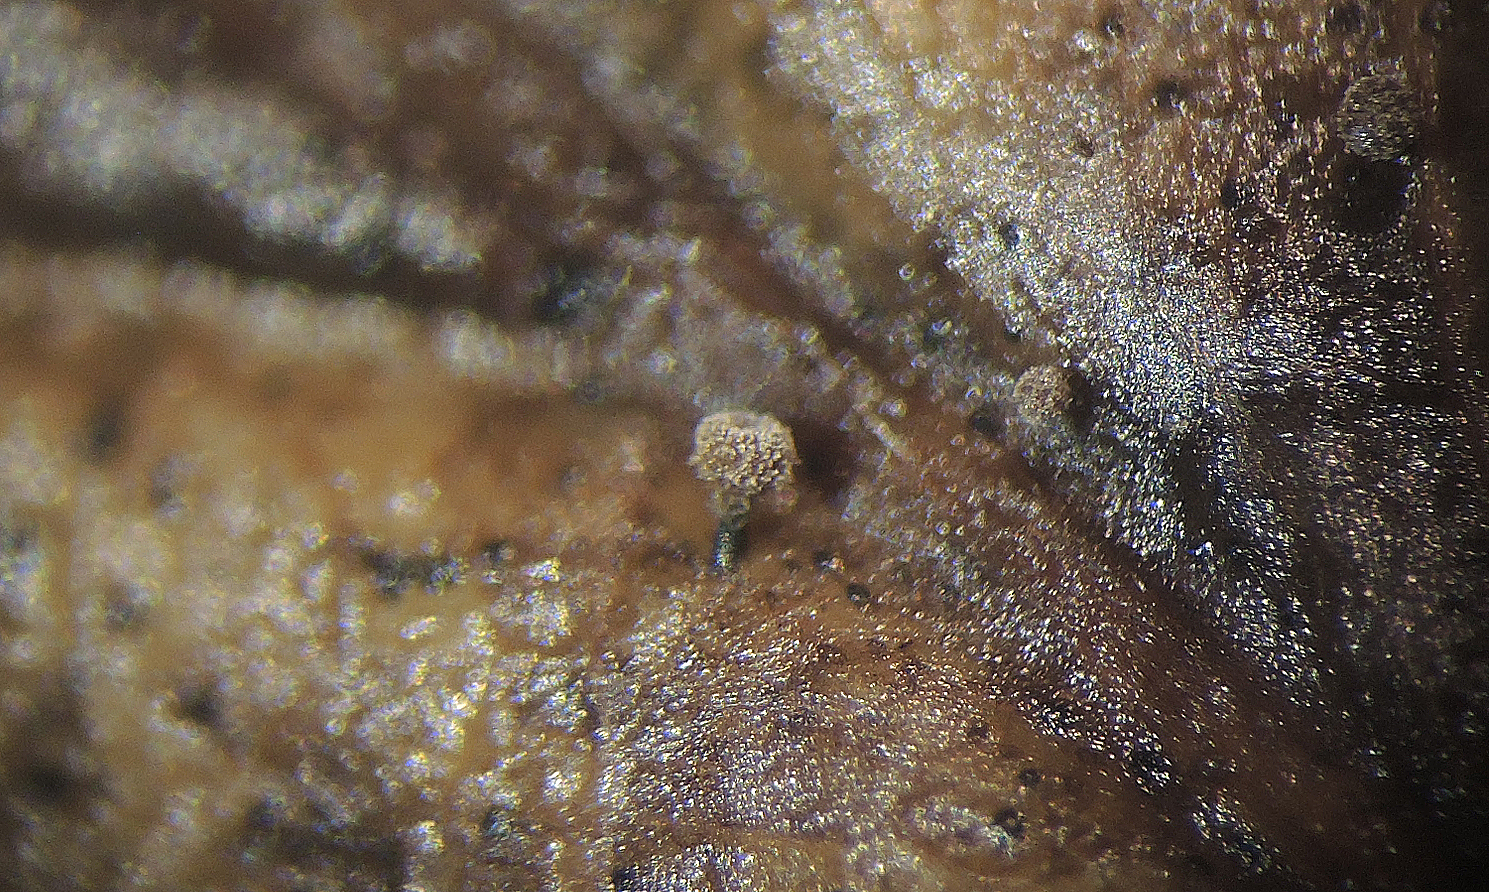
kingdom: Fungi
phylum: Ascomycota
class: Leotiomycetes
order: Helotiales
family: Lachnaceae
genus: Brunnipila
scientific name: Brunnipila
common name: frynseskive
